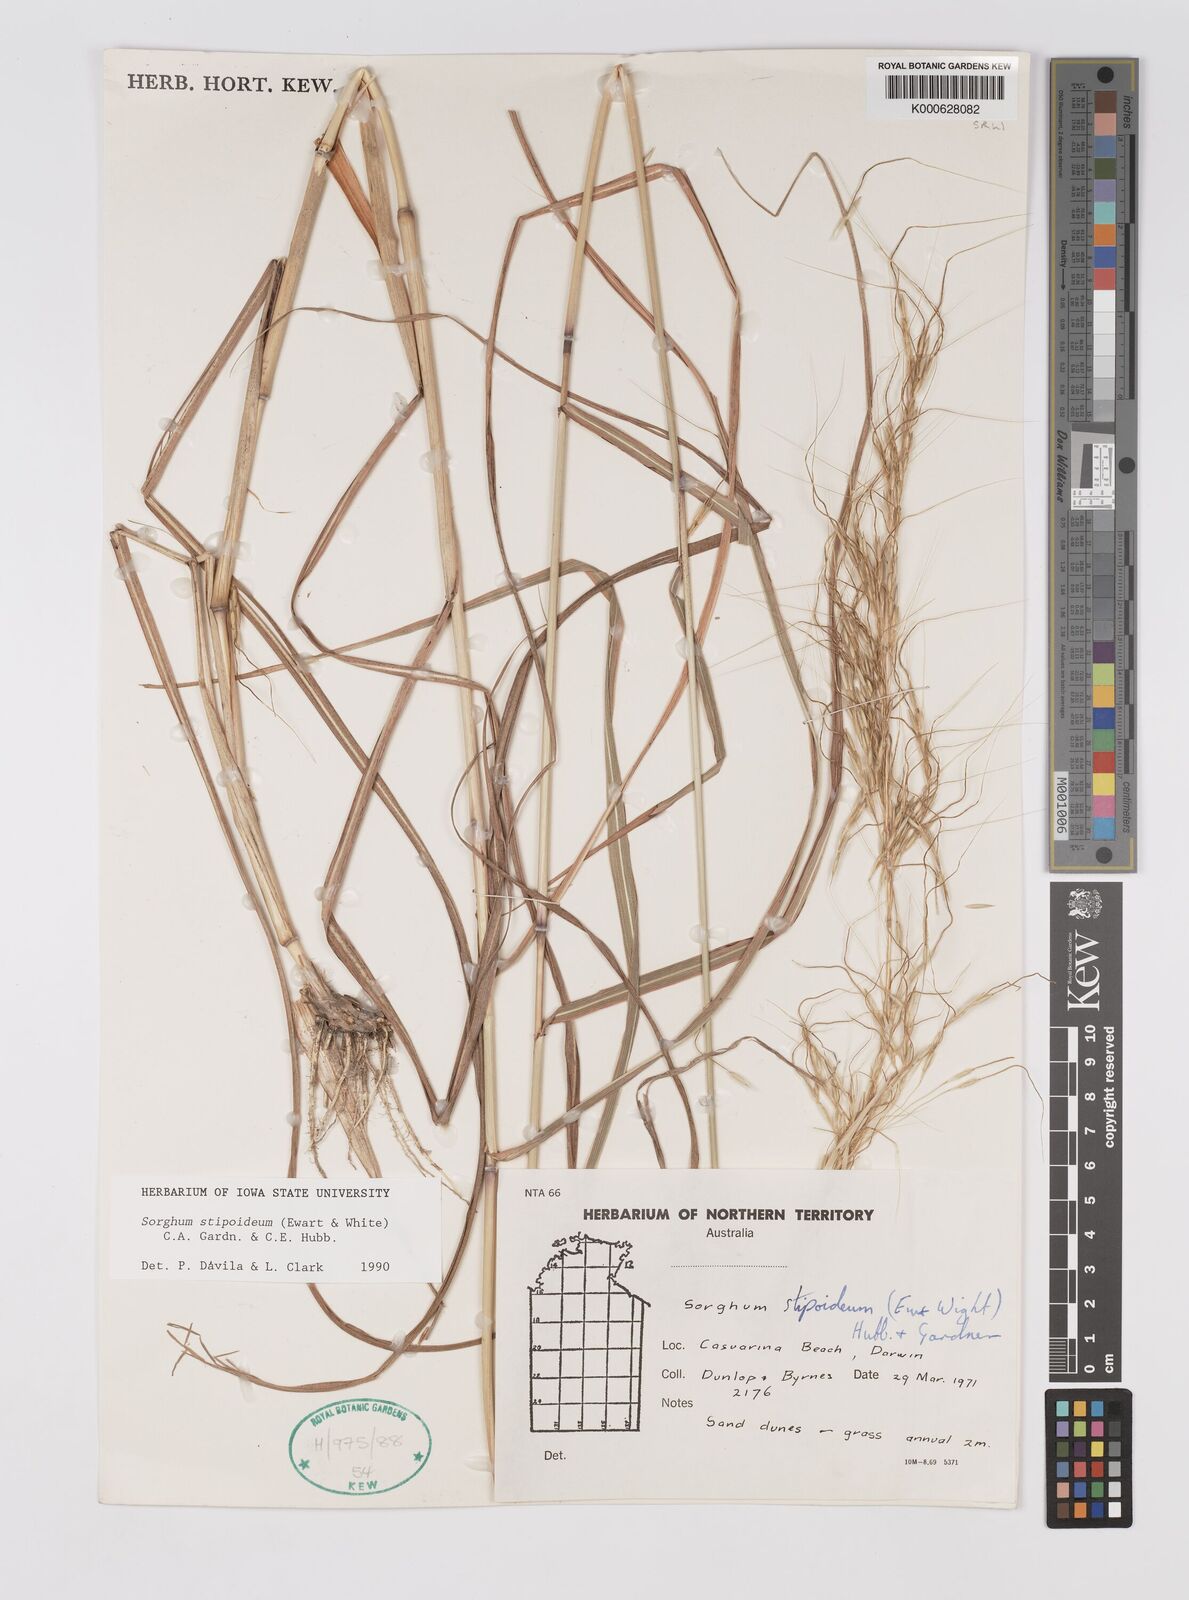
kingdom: Plantae
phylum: Tracheophyta
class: Liliopsida
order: Poales
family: Poaceae
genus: Sarga
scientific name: Sarga stipoidea
